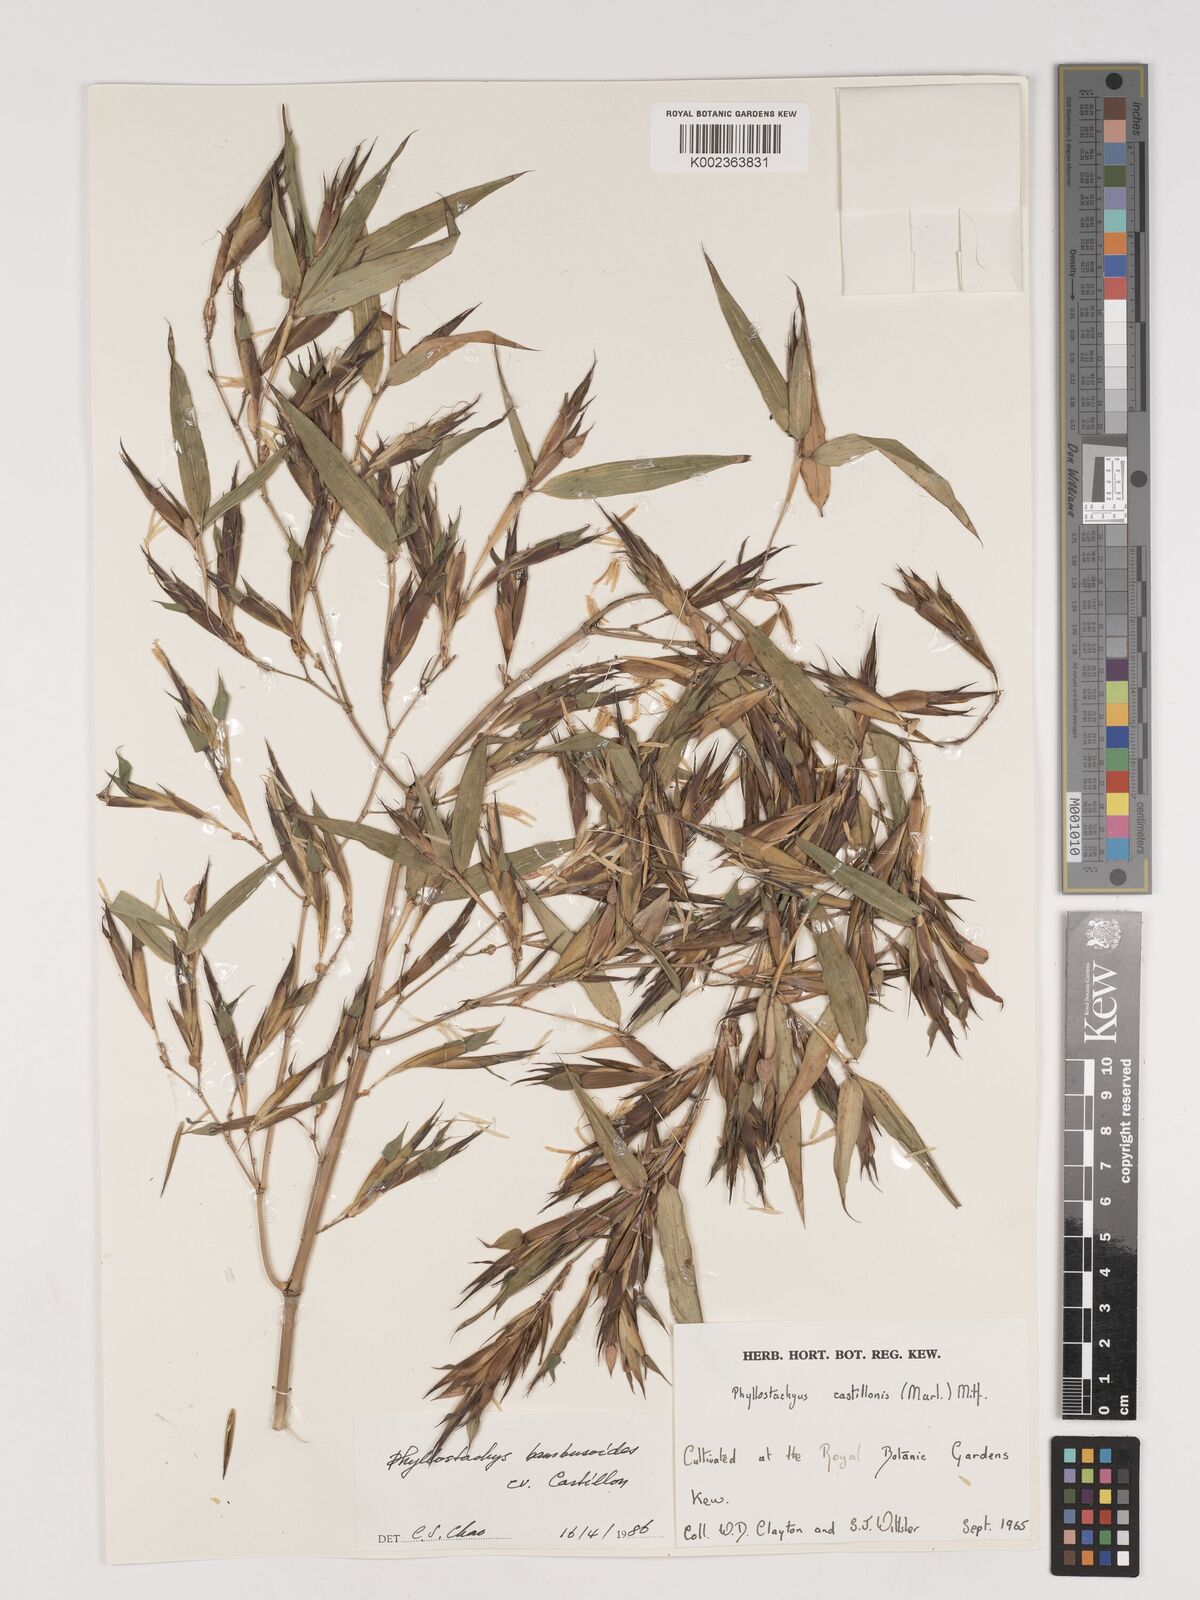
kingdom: Plantae
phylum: Tracheophyta
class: Liliopsida
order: Poales
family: Poaceae
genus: Phyllostachys
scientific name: Phyllostachys reticulata
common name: Bamboo
